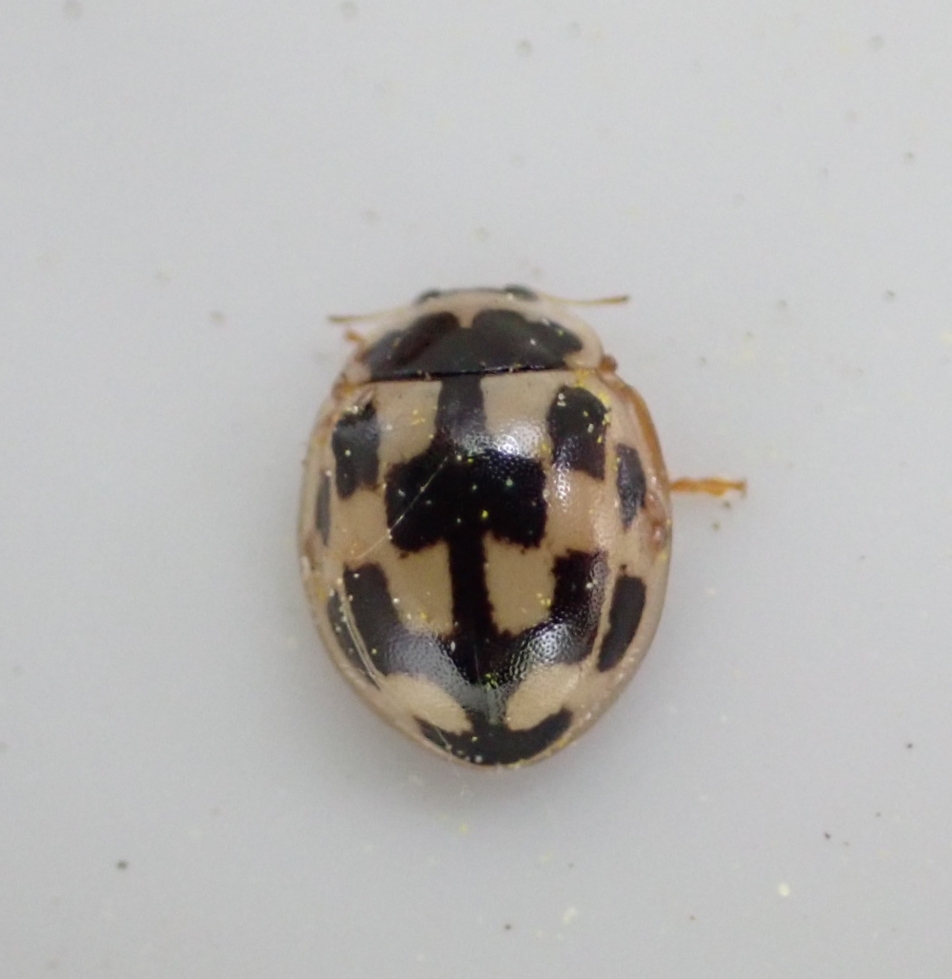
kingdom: Animalia
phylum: Arthropoda
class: Insecta
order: Coleoptera
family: Coccinellidae
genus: Propylaea
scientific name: Propylaea quatuordecimpunctata
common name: Skakbræt
